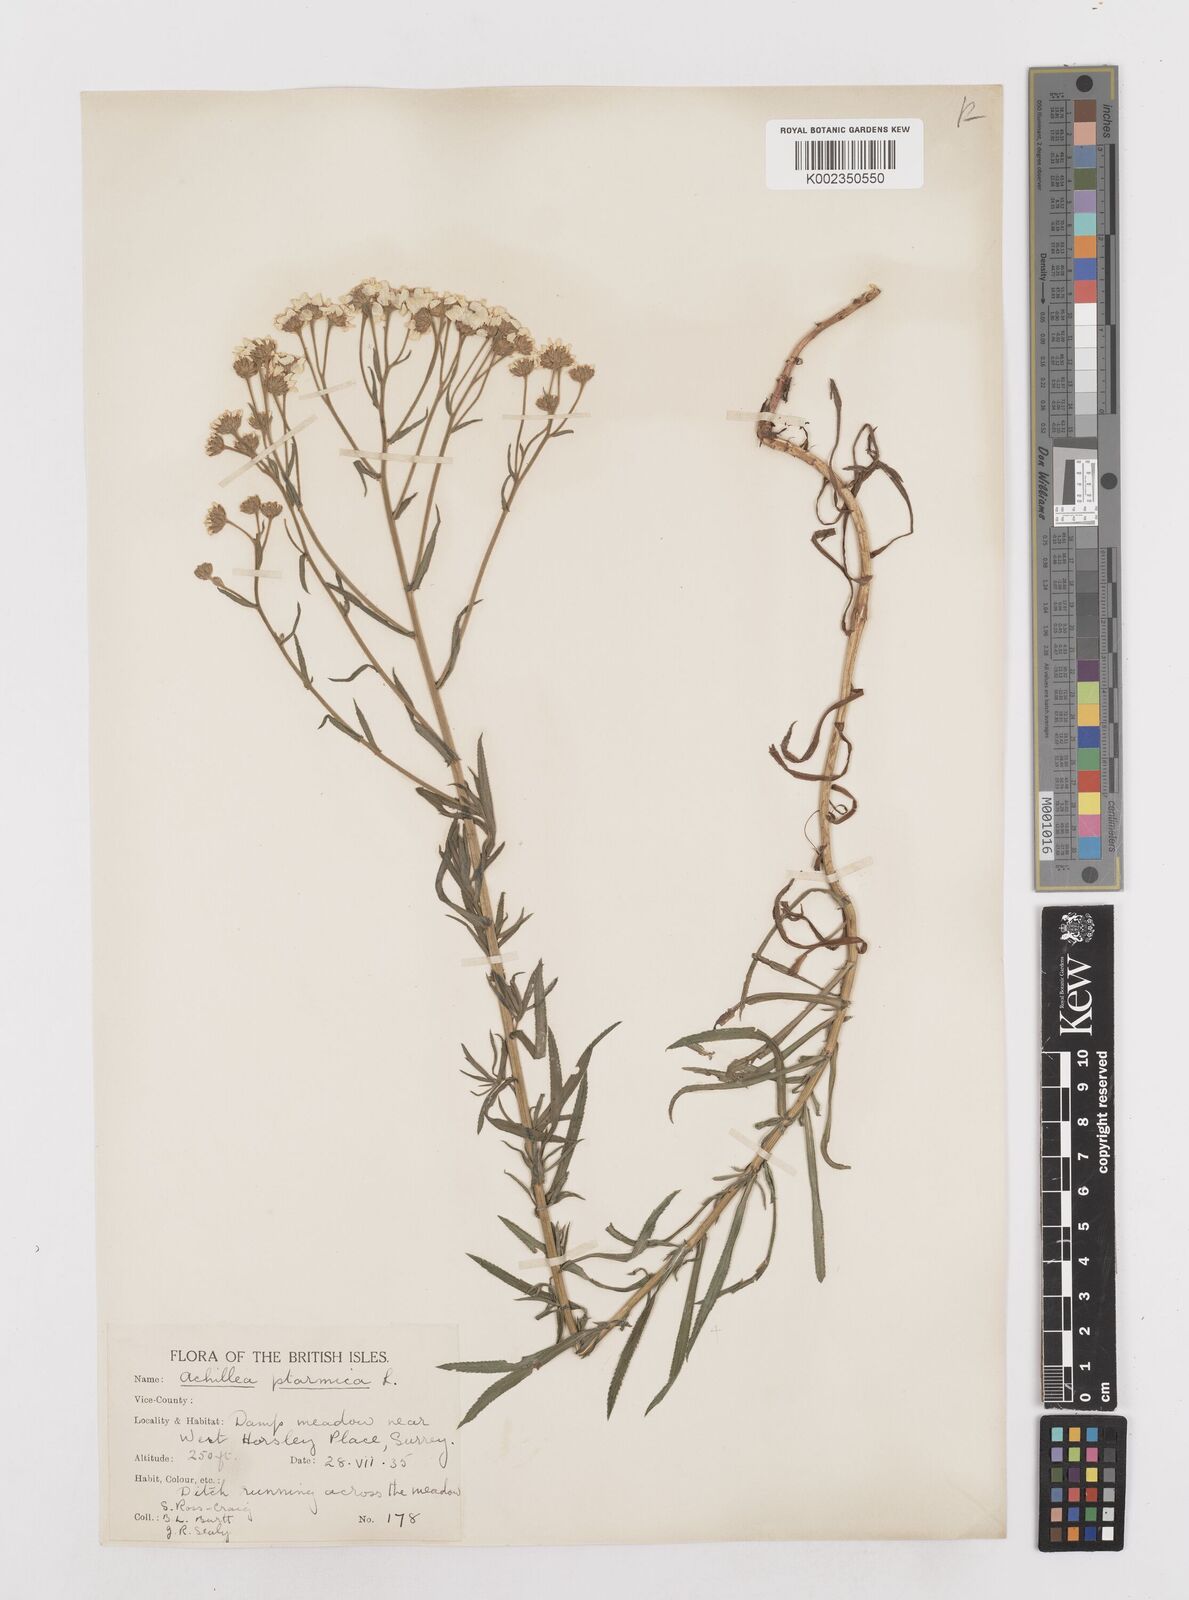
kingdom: Plantae
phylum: Tracheophyta
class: Magnoliopsida
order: Asterales
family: Asteraceae
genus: Achillea
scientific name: Achillea ptarmica
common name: Sneezeweed
